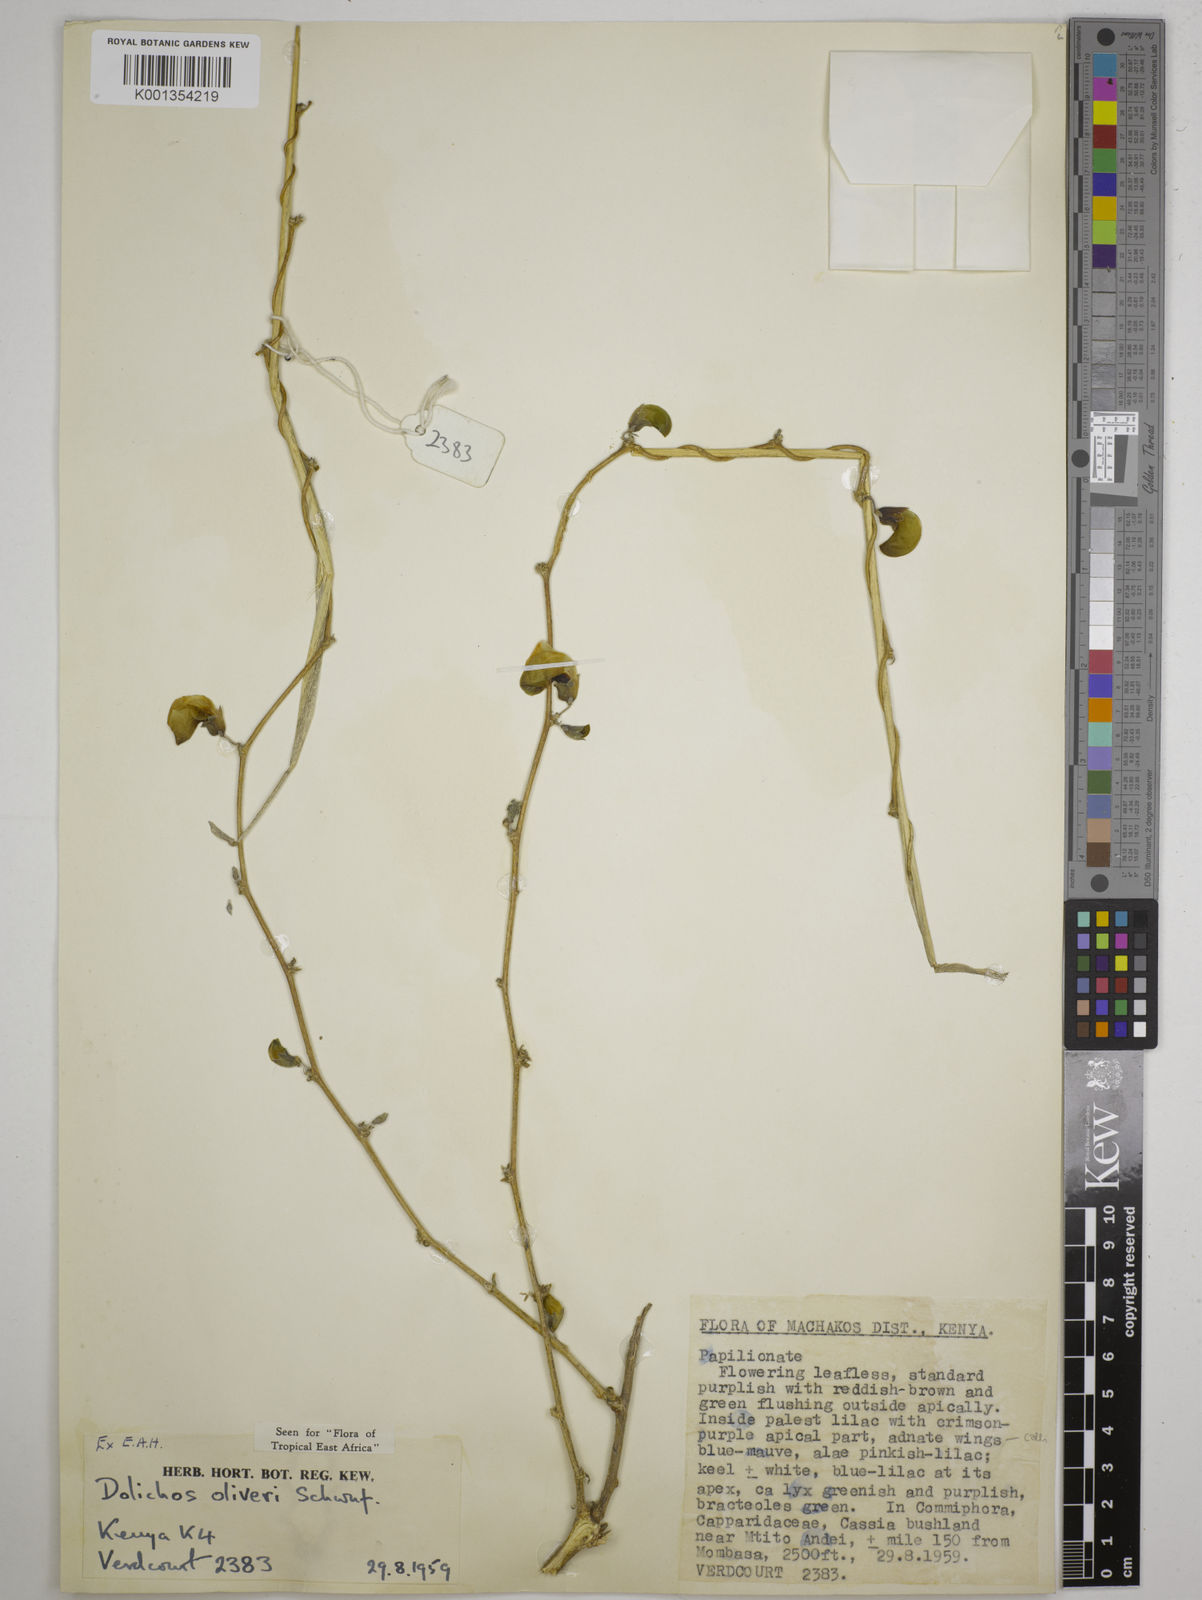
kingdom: Plantae
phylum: Tracheophyta
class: Magnoliopsida
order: Fabales
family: Fabaceae
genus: Dolichos
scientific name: Dolichos
